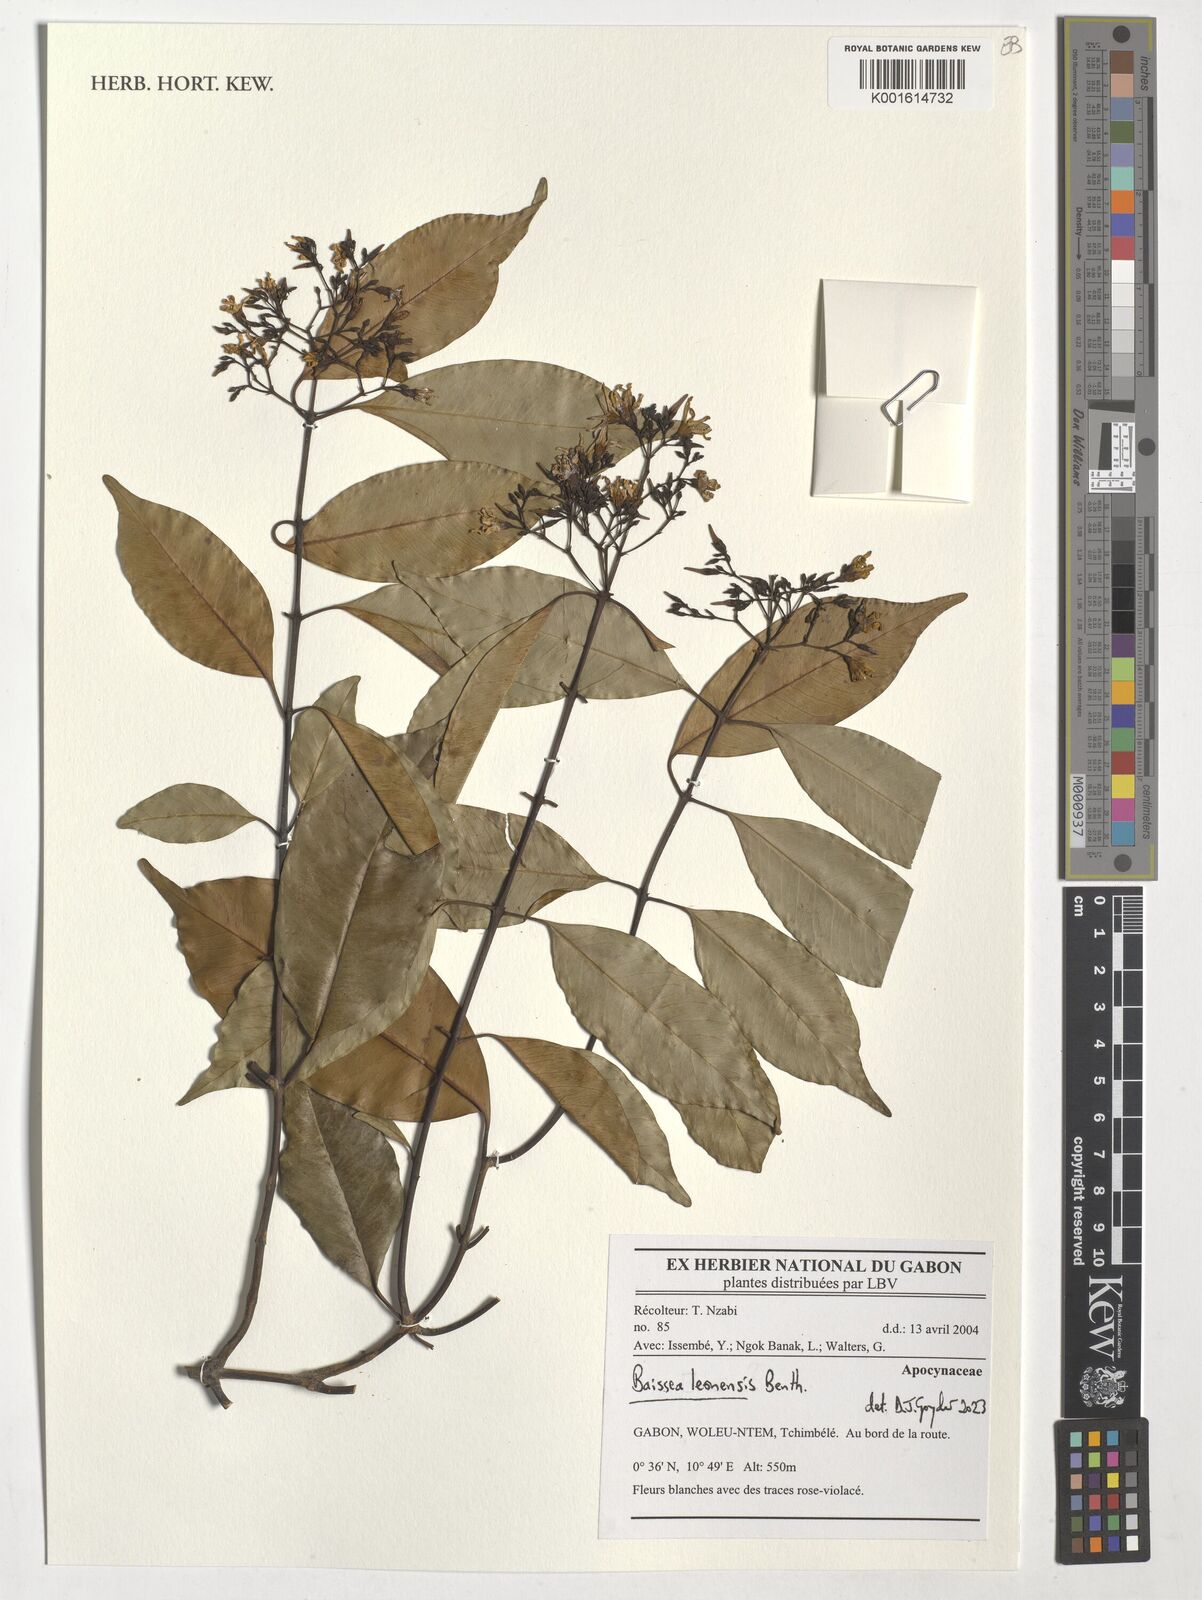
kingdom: Plantae
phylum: Tracheophyta
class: Magnoliopsida
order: Gentianales
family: Apocynaceae
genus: Baissea
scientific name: Baissea leonensis
